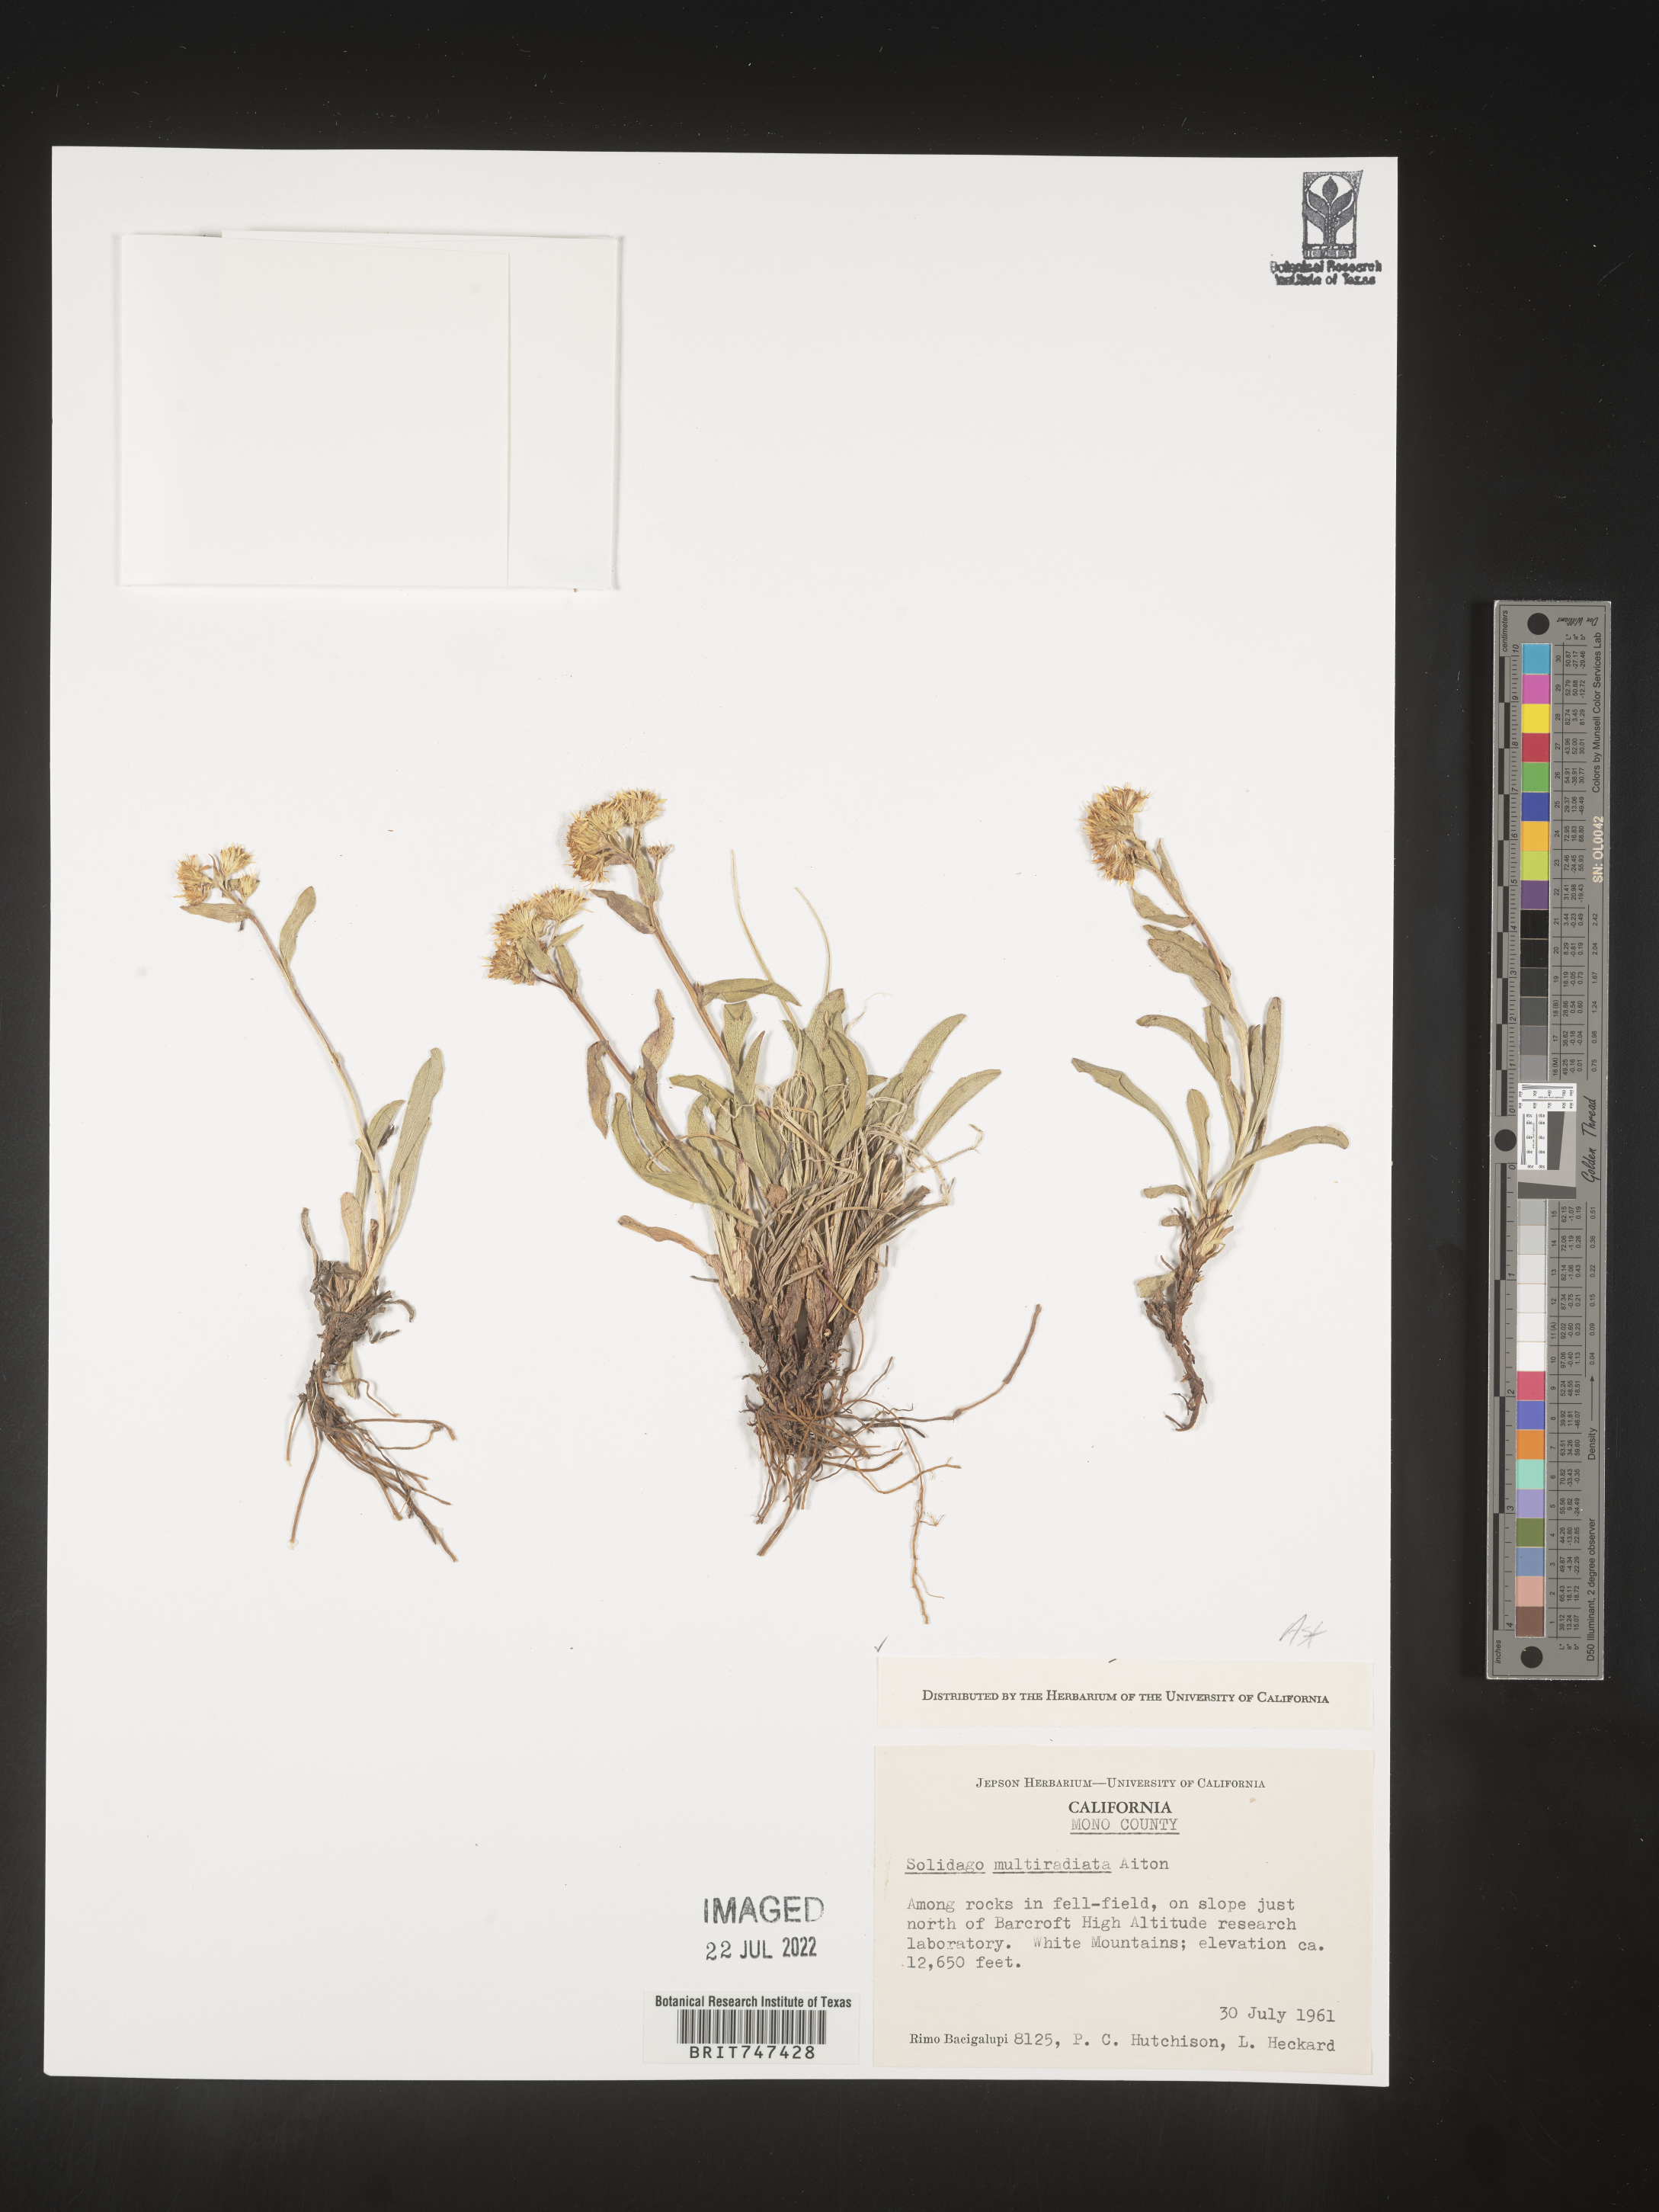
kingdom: Plantae
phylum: Tracheophyta
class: Magnoliopsida
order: Asterales
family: Asteraceae
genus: Solidago
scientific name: Solidago multiradiata
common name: Northern goldenrod
